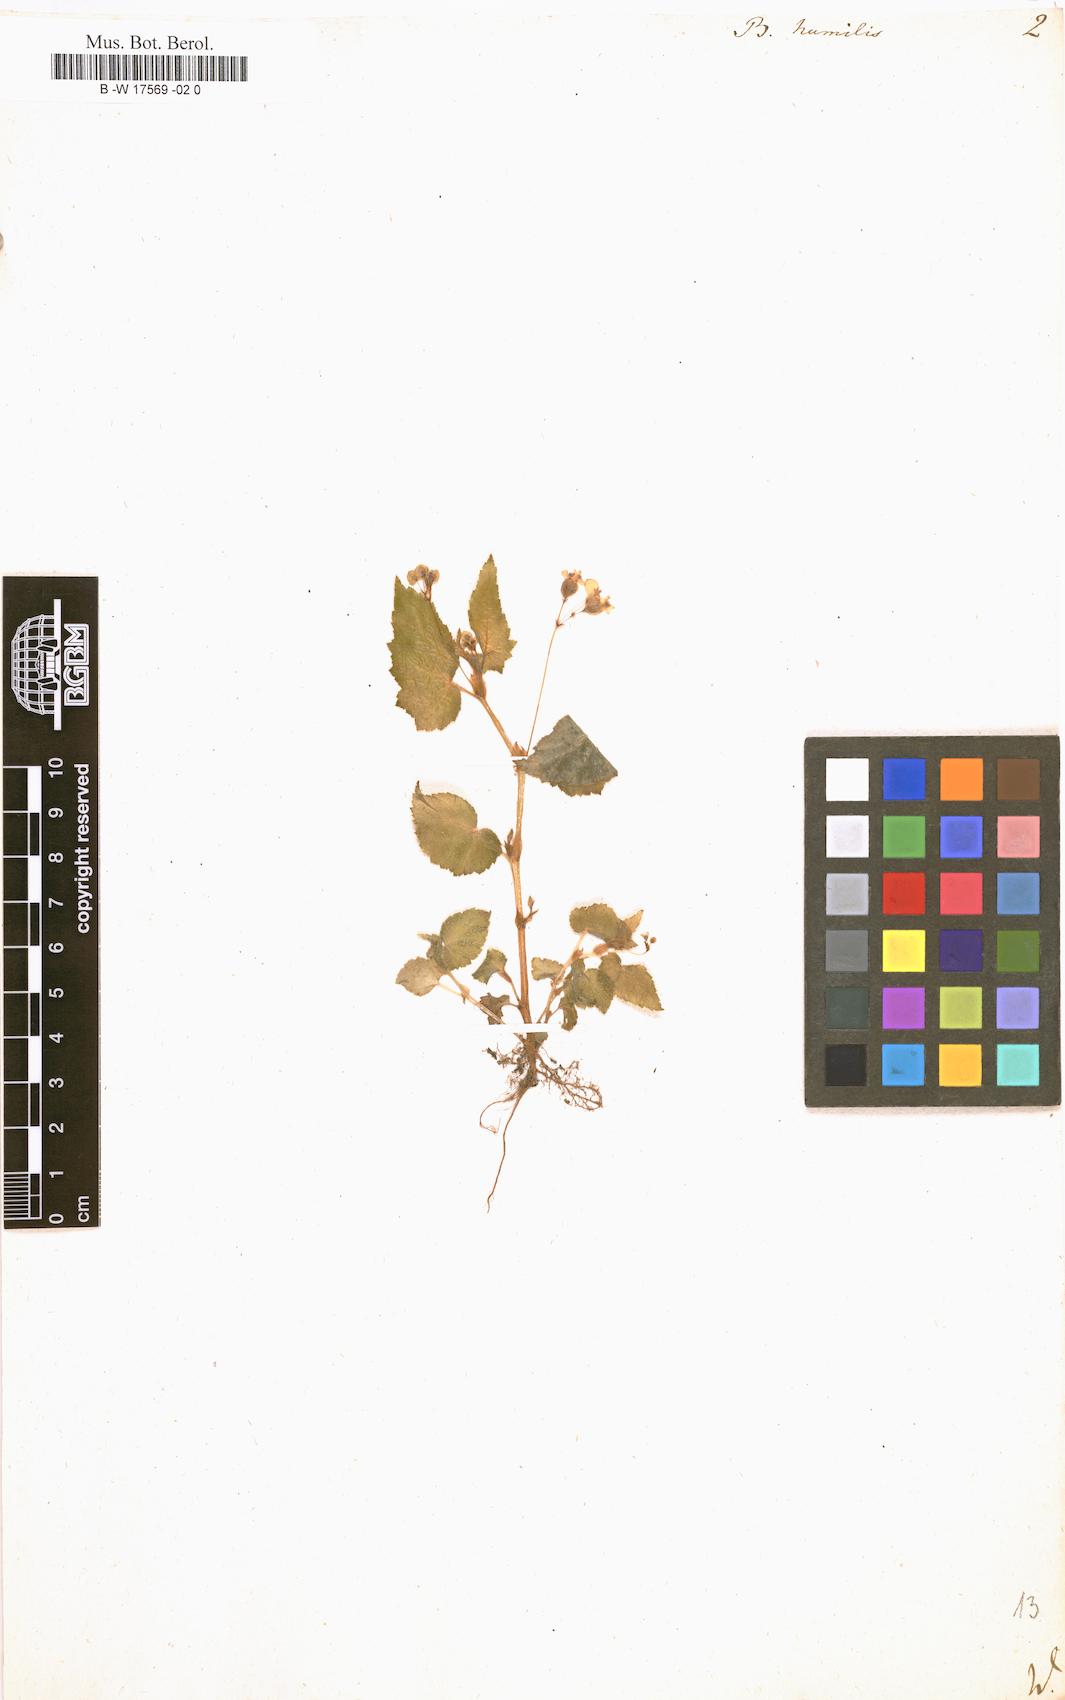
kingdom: Plantae
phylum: Tracheophyta
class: Magnoliopsida
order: Cucurbitales
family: Begoniaceae
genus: Begonia
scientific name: Begonia semiovata
